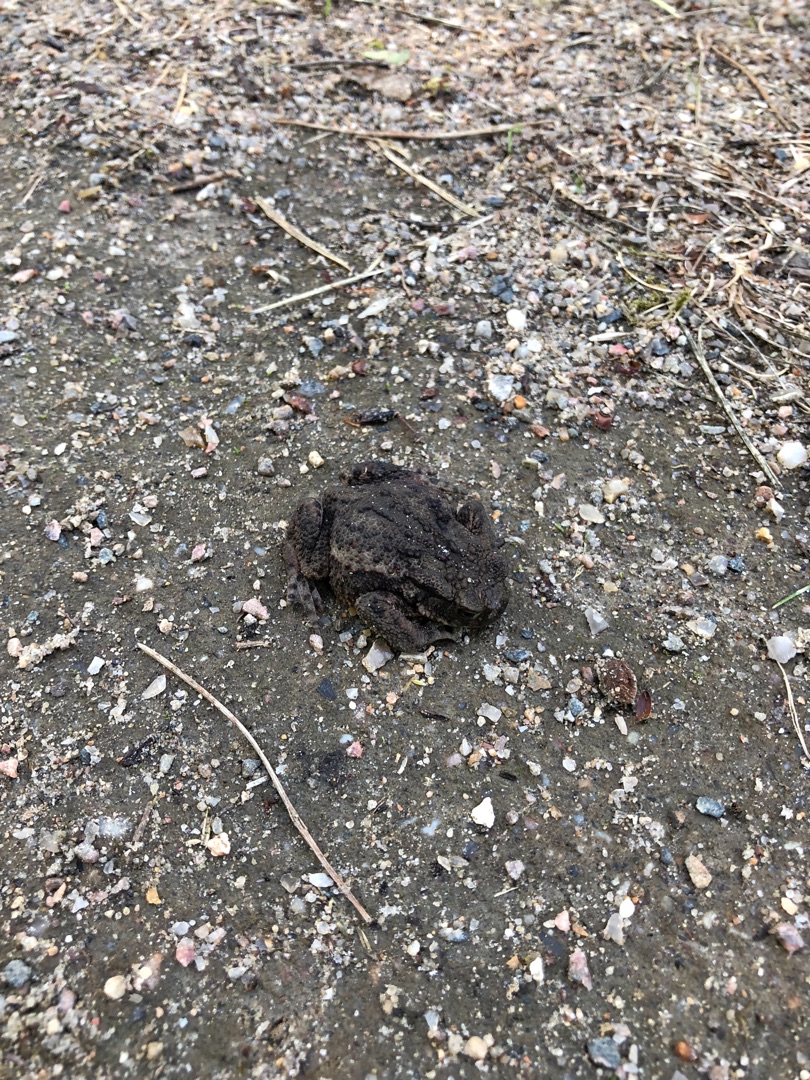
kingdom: Animalia
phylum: Chordata
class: Amphibia
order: Anura
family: Bufonidae
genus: Bufo
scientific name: Bufo bufo
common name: Skrubtudse
